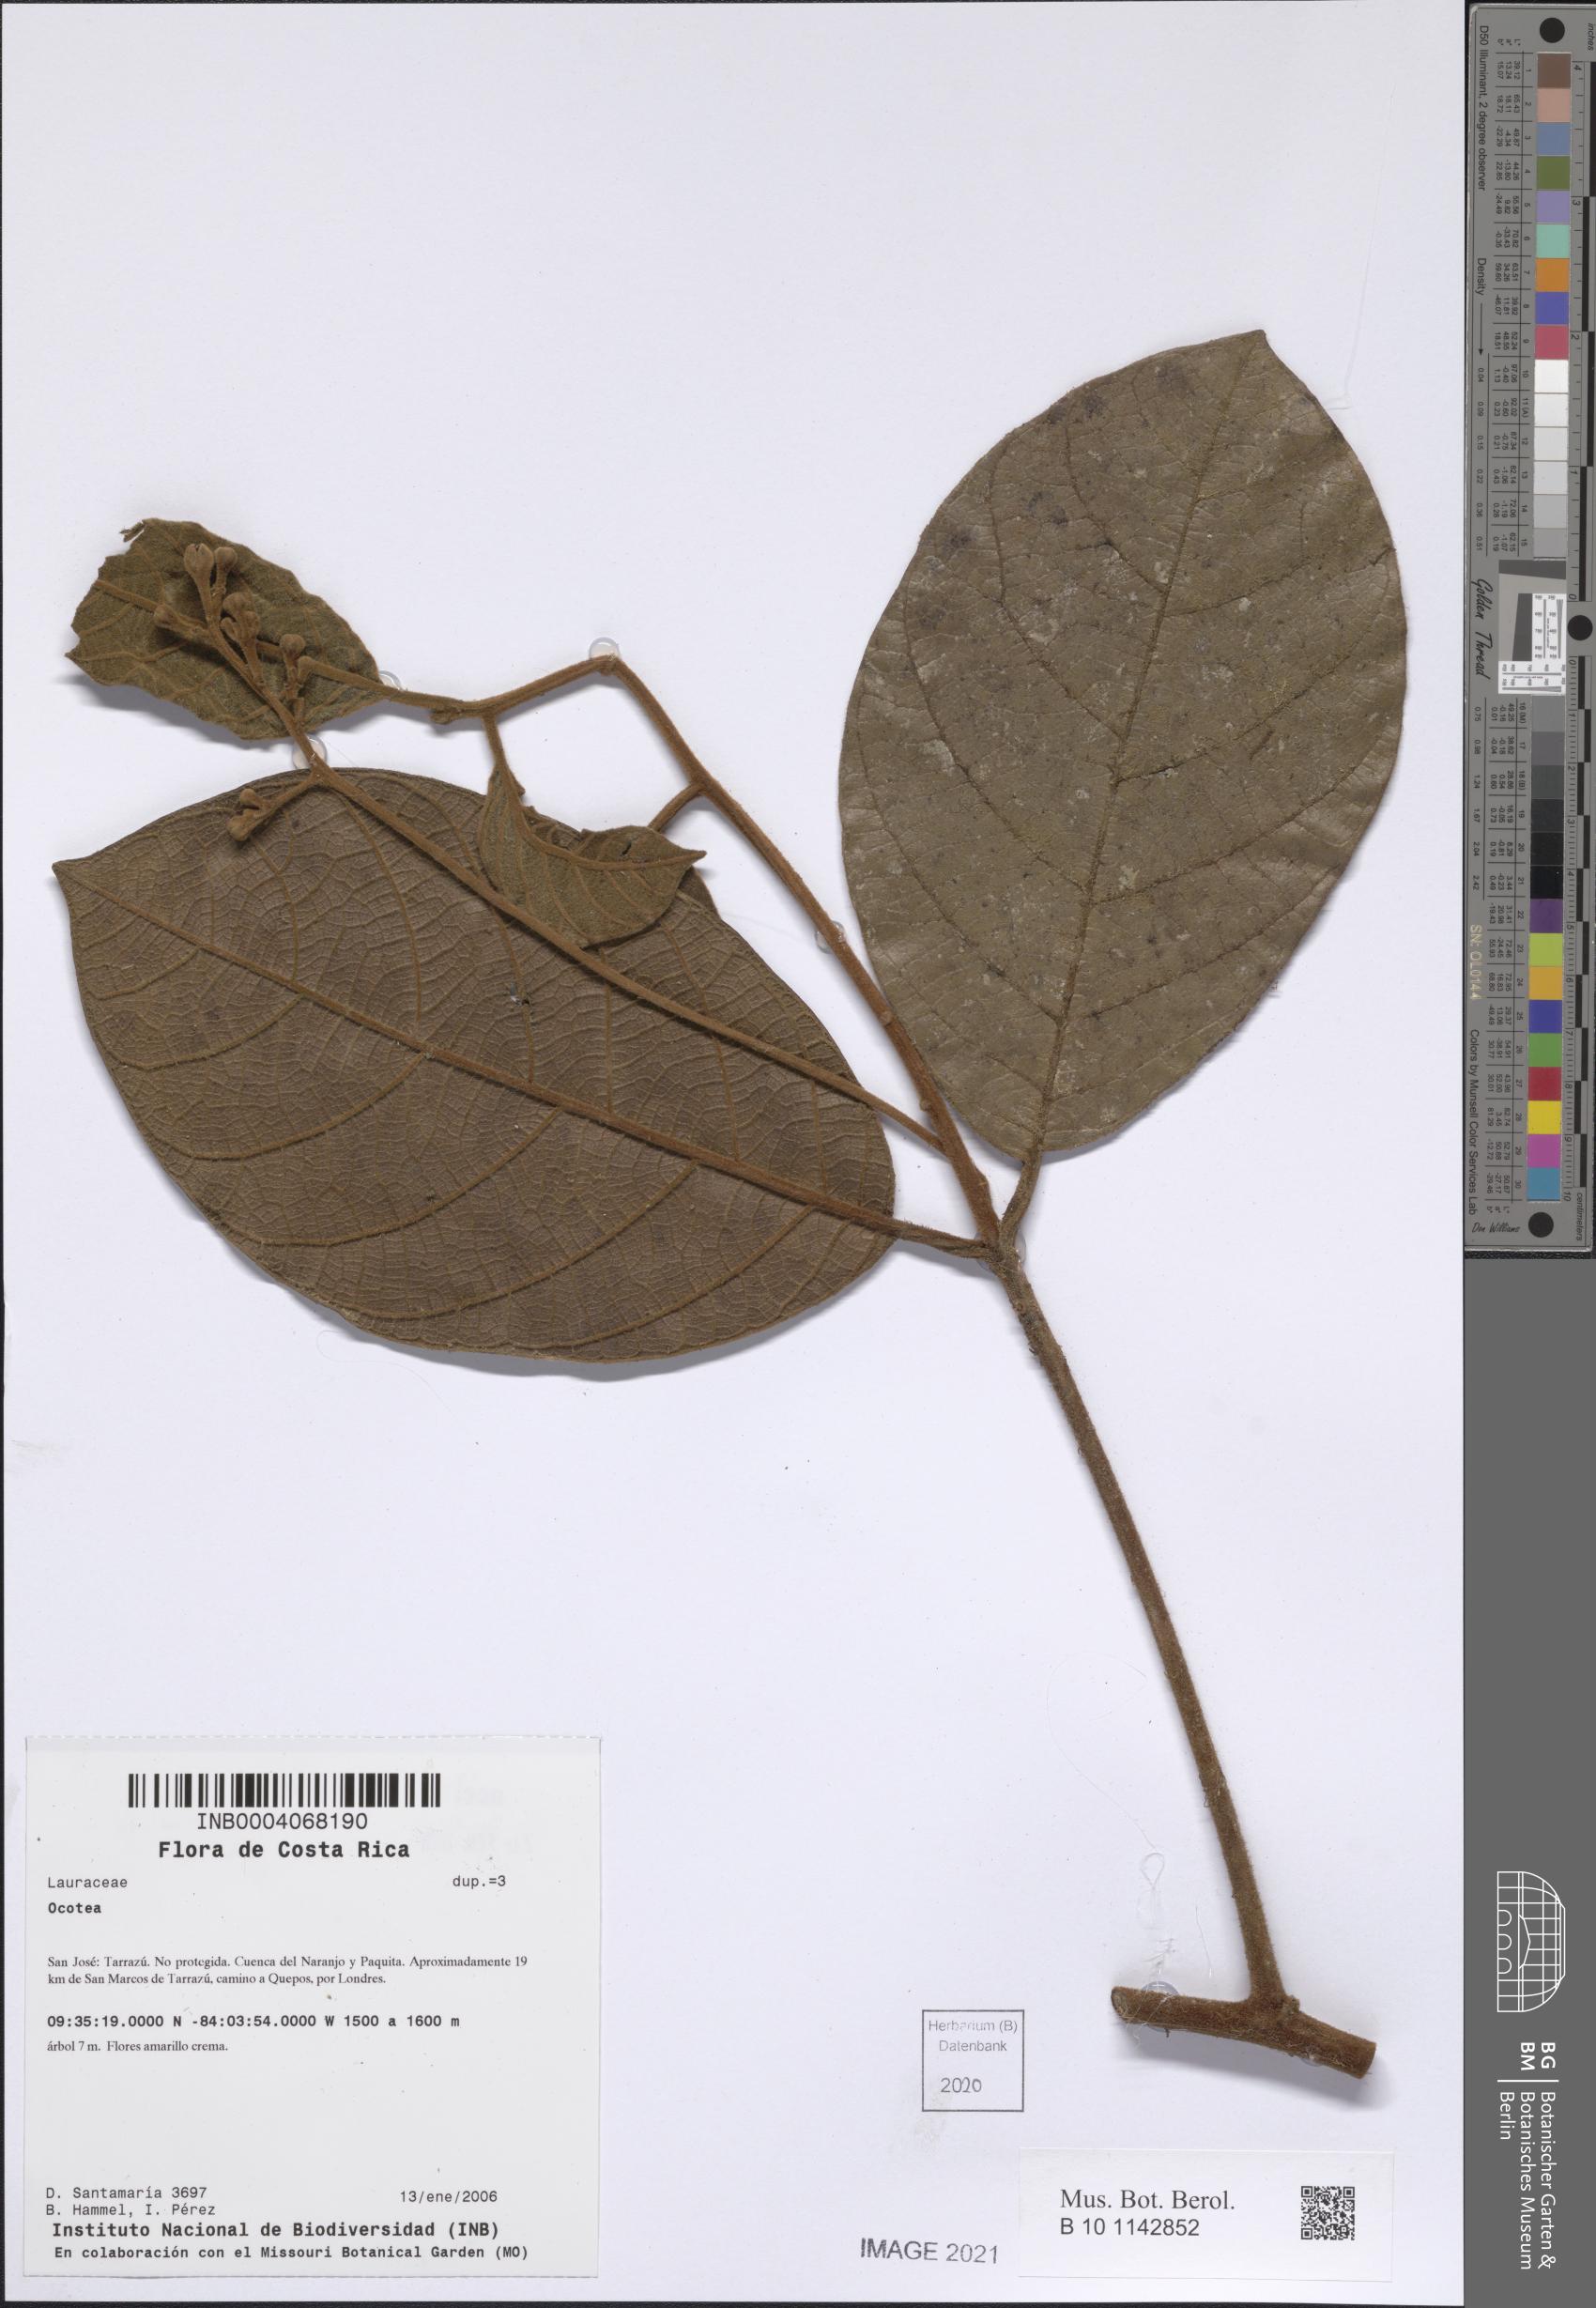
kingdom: Plantae
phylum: Tracheophyta
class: Magnoliopsida
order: Laurales
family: Lauraceae
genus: Ocotea
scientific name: Ocotea
